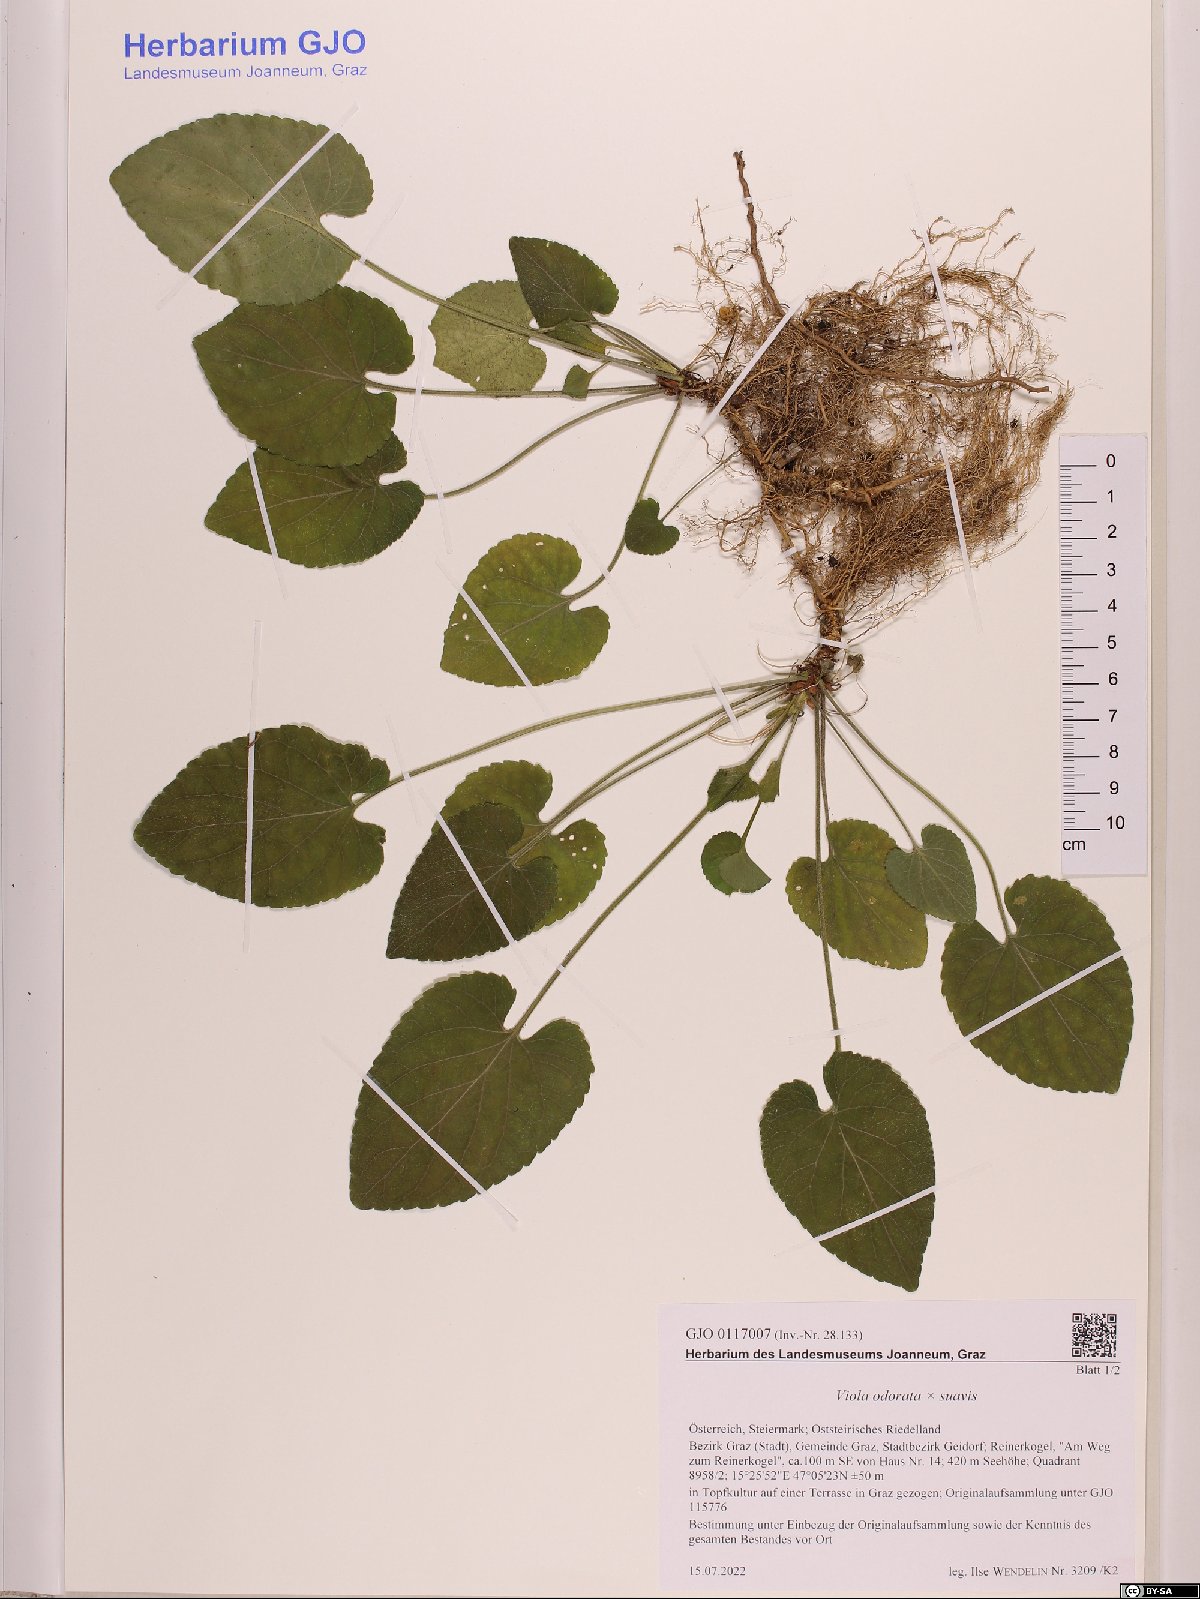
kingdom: Plantae
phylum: Tracheophyta
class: Magnoliopsida
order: Malpighiales
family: Violaceae
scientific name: Violaceae
